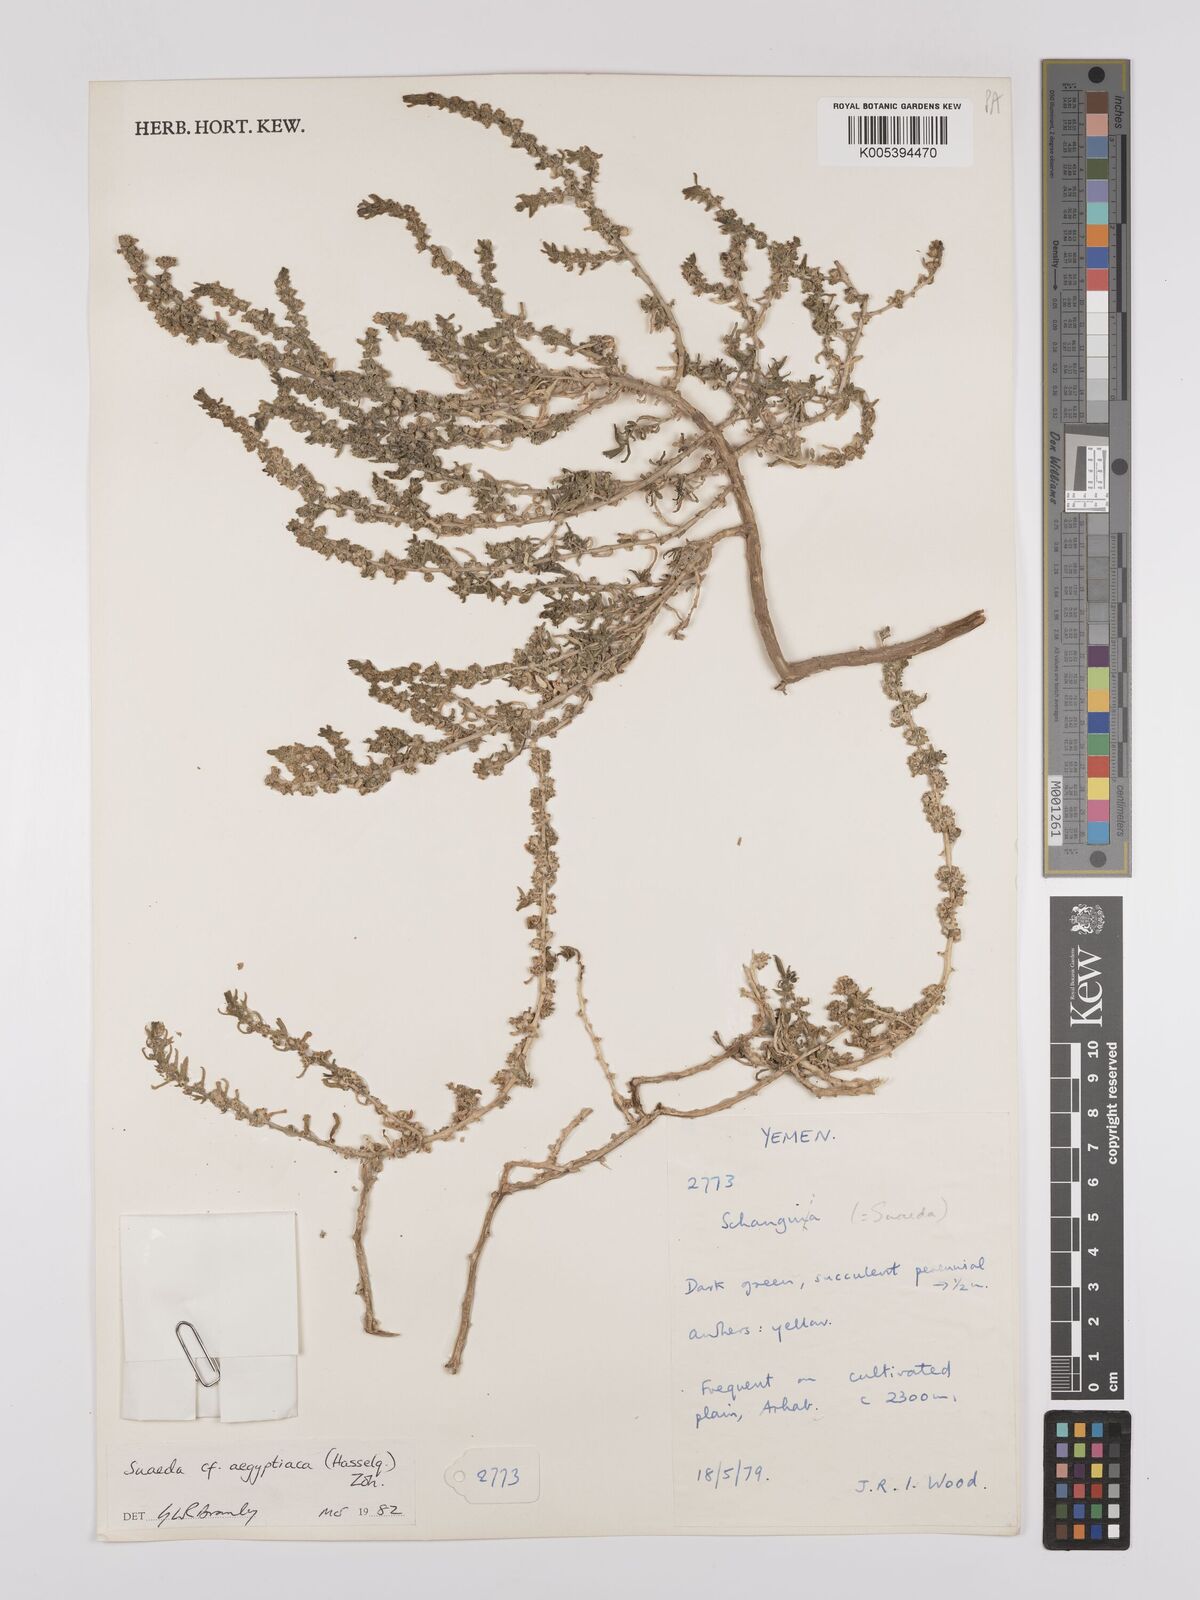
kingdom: Plantae
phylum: Tracheophyta
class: Magnoliopsida
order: Caryophyllales
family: Amaranthaceae
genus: Suaeda
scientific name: Suaeda aegyptiaca
